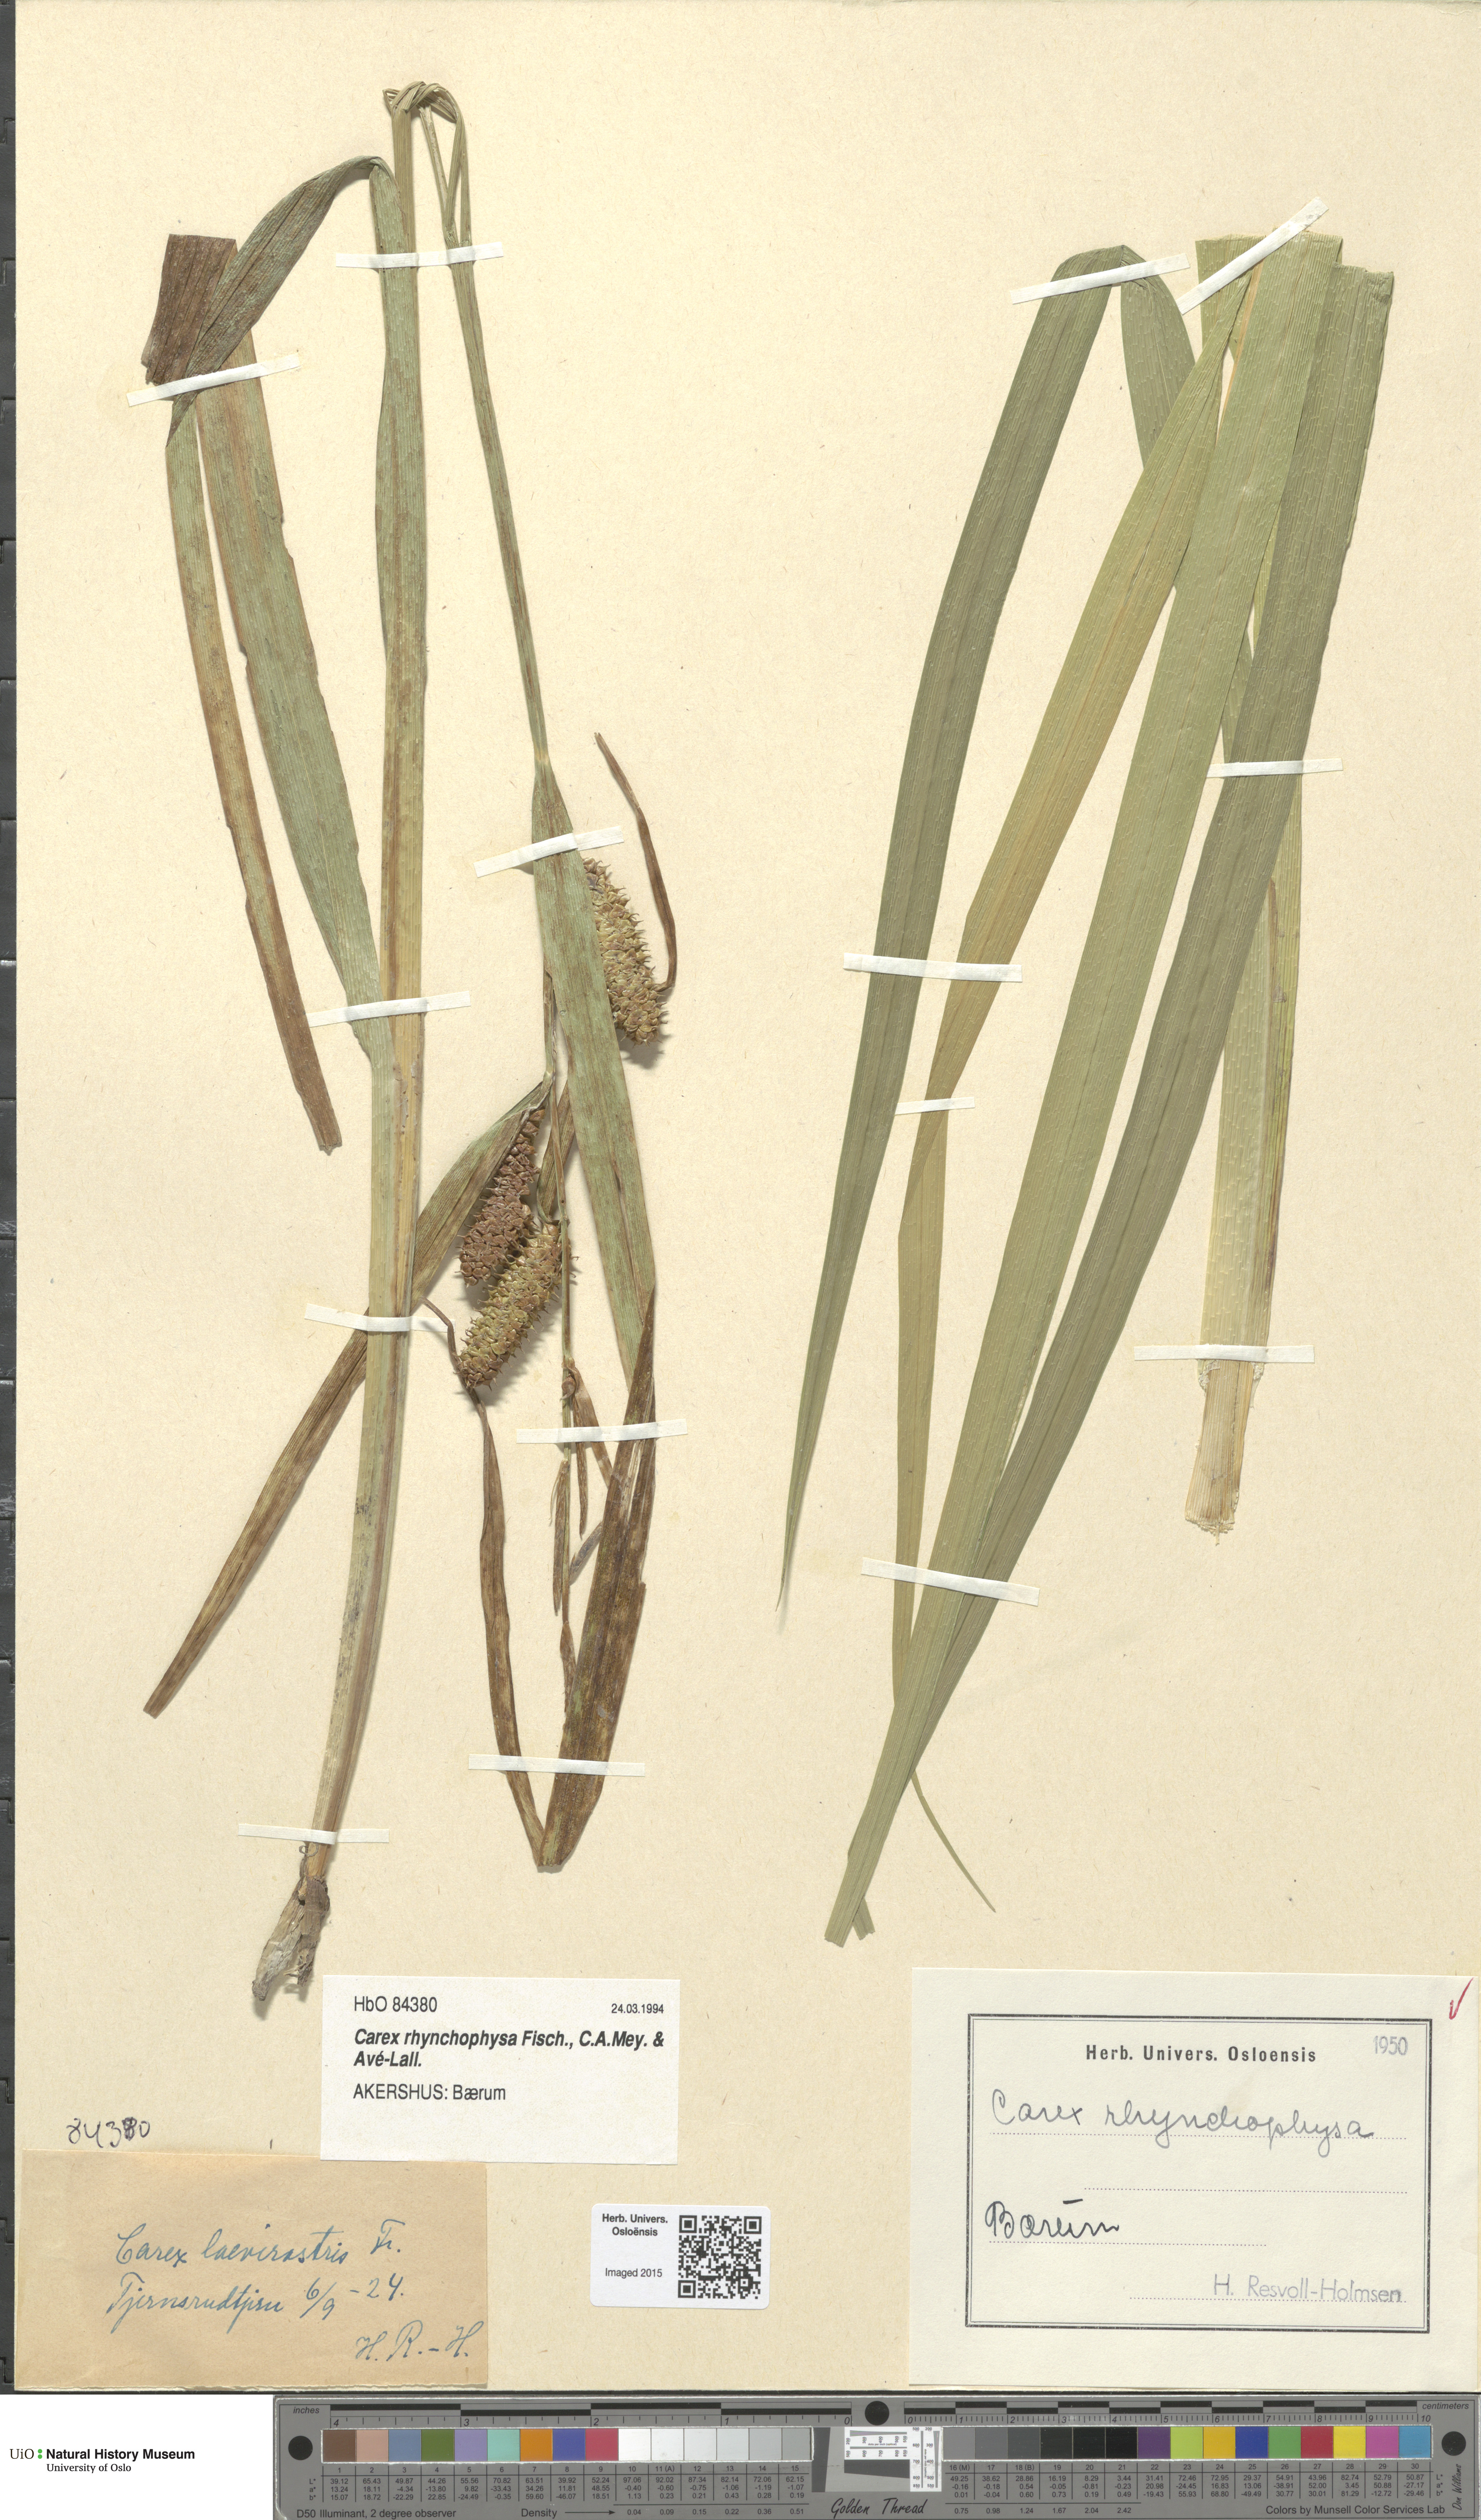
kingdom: Plantae
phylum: Tracheophyta
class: Liliopsida
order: Poales
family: Cyperaceae
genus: Carex
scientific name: Carex utriculata
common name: Beaked sedge
